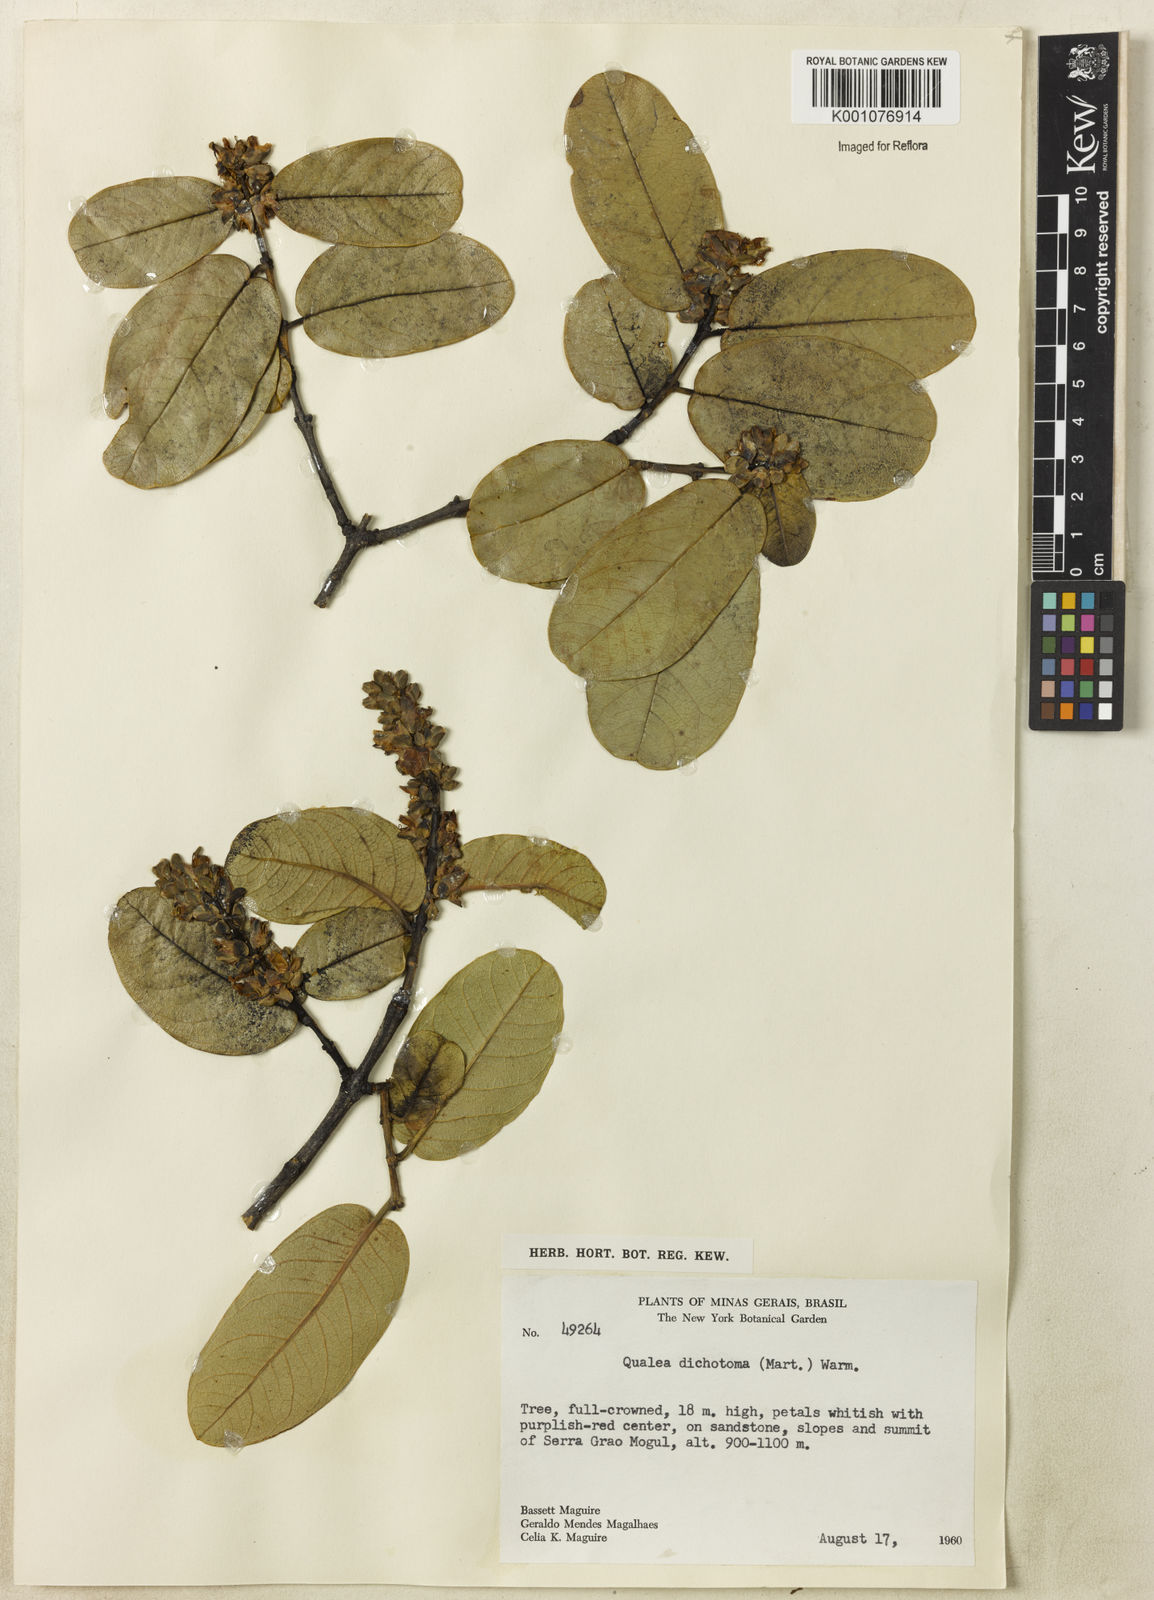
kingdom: Plantae
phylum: Tracheophyta
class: Magnoliopsida
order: Myrtales
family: Vochysiaceae
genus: Qualea
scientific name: Qualea
